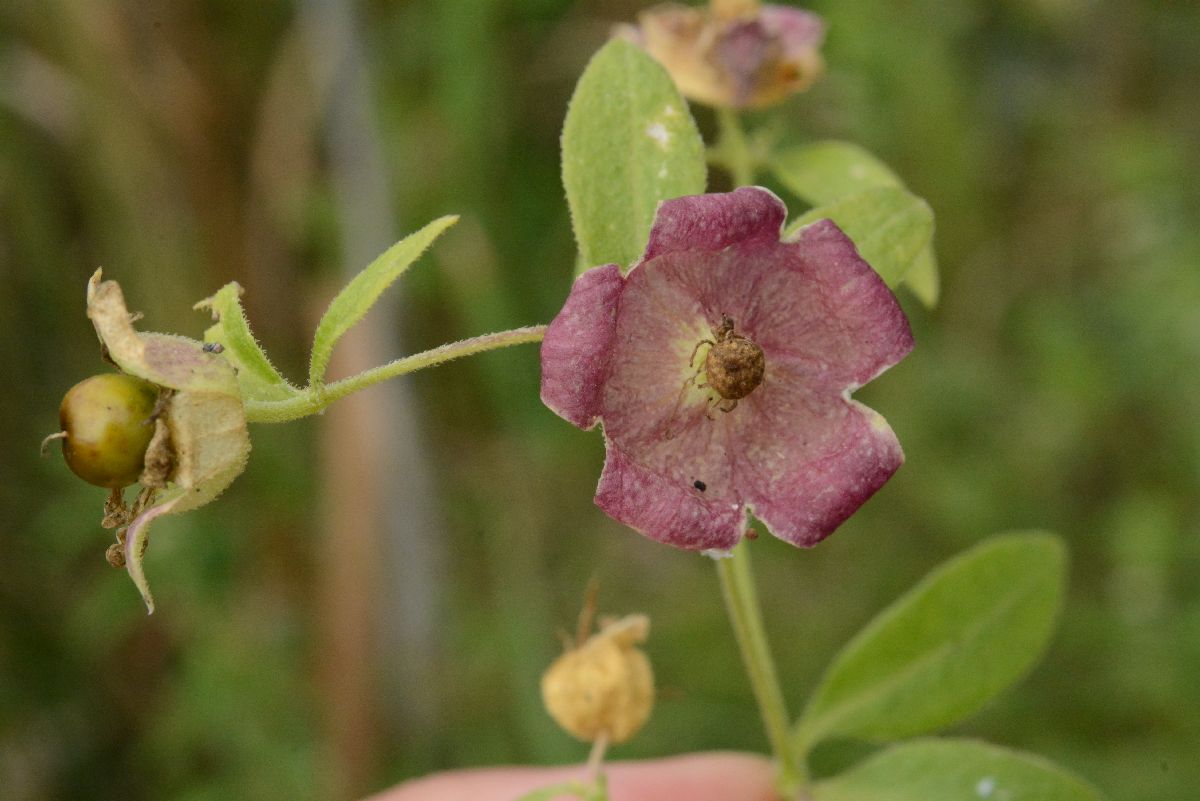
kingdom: Plantae
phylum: Tracheophyta
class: Magnoliopsida
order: Caryophyllales
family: Caryophyllaceae
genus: Silene
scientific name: Silene baccifera
